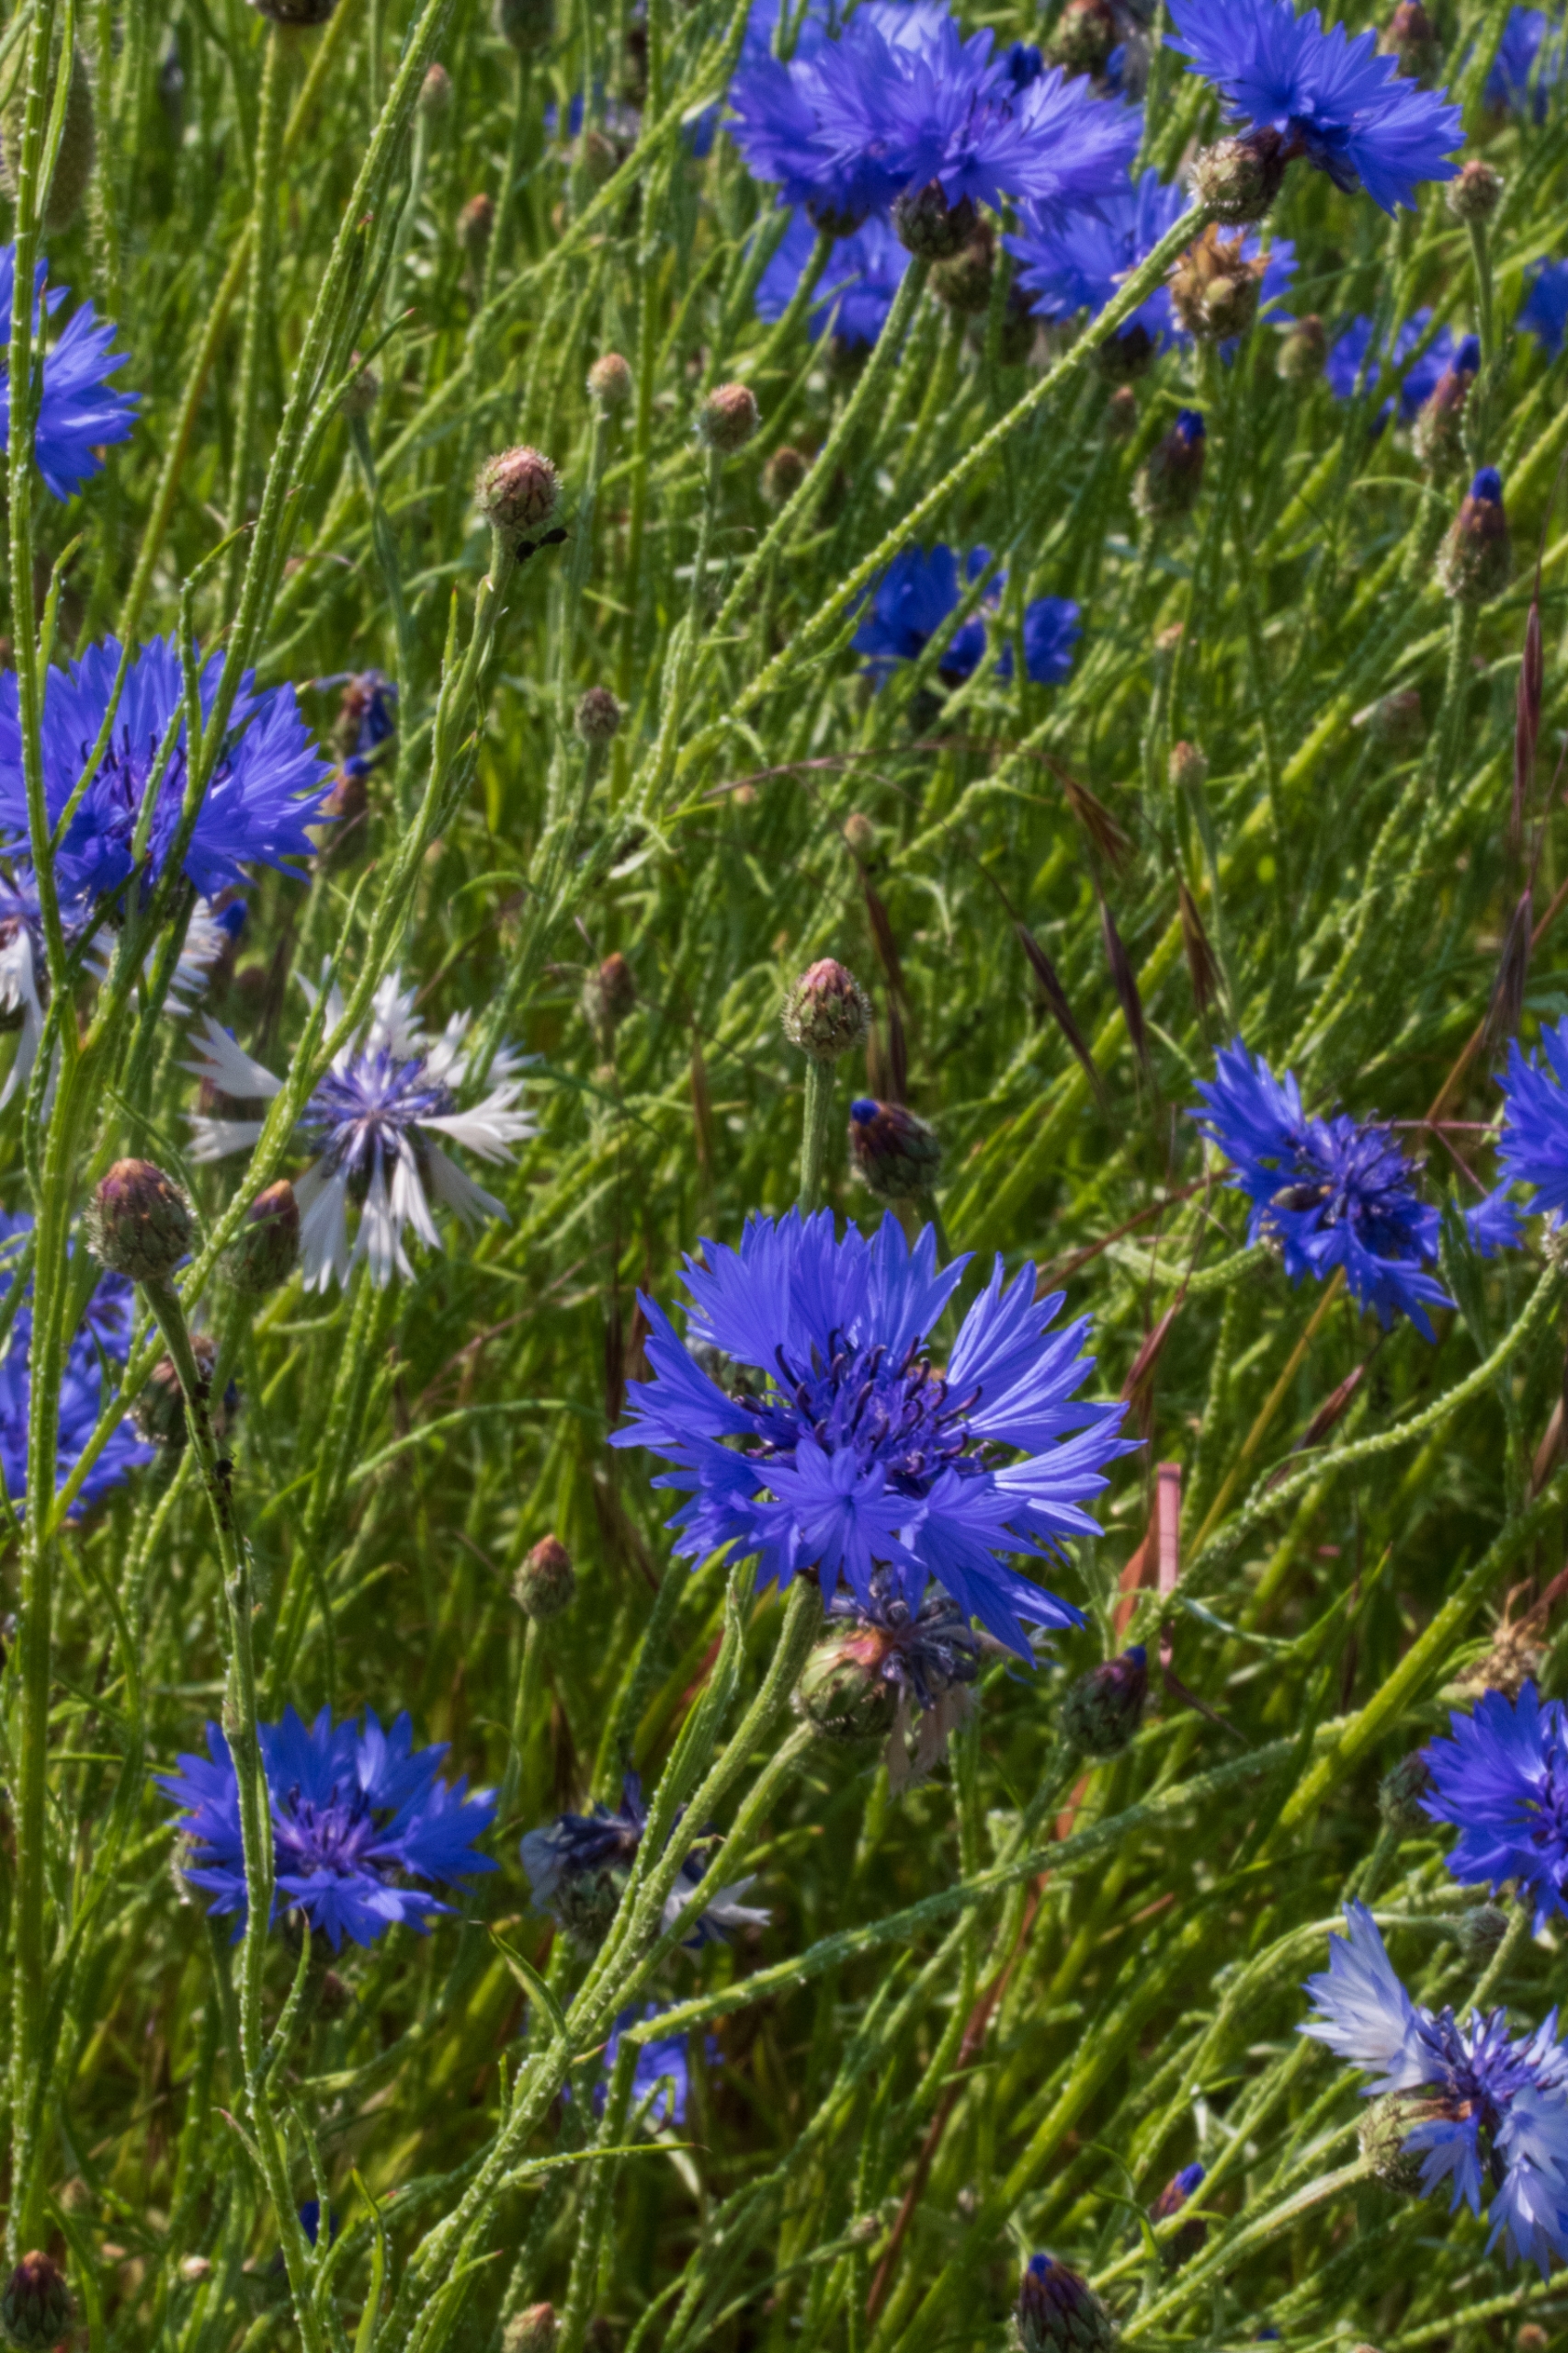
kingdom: Plantae
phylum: Tracheophyta
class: Magnoliopsida
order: Asterales
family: Asteraceae
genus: Centaurea
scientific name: Centaurea cyanus
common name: Kornblomst
